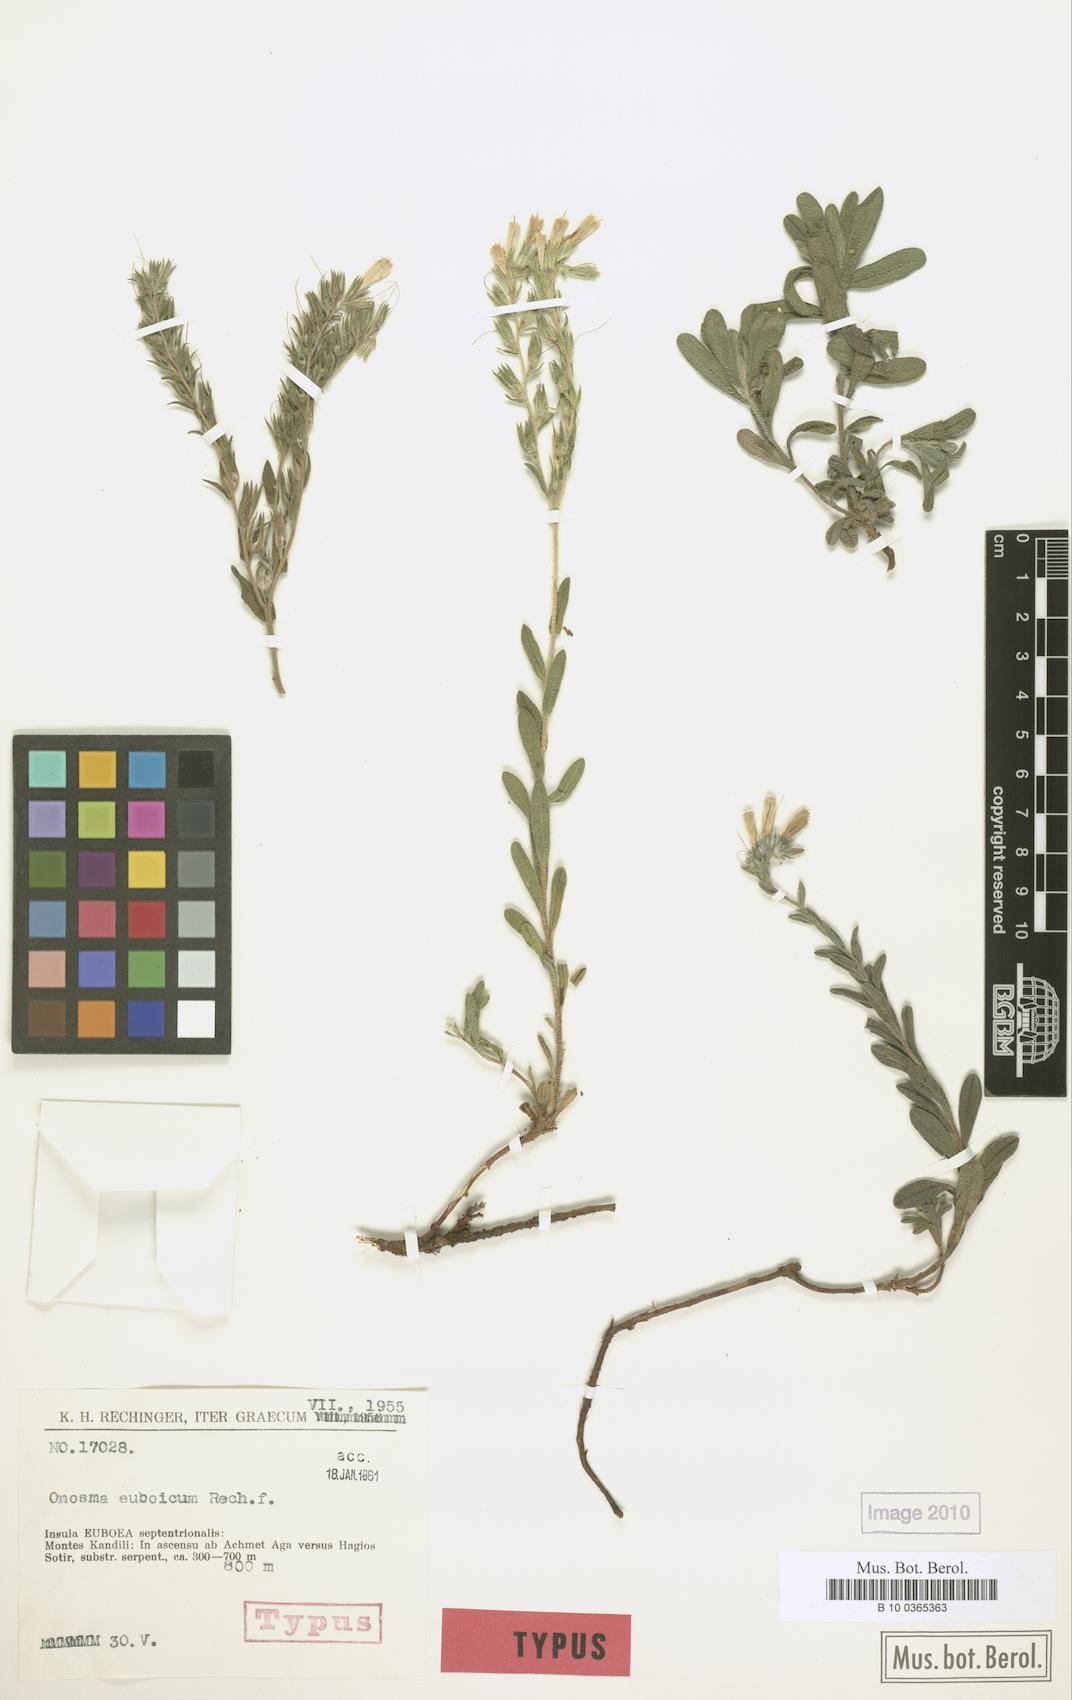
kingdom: Plantae
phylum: Tracheophyta
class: Magnoliopsida
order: Boraginales
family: Boraginaceae
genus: Onosma
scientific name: Onosma euboica
